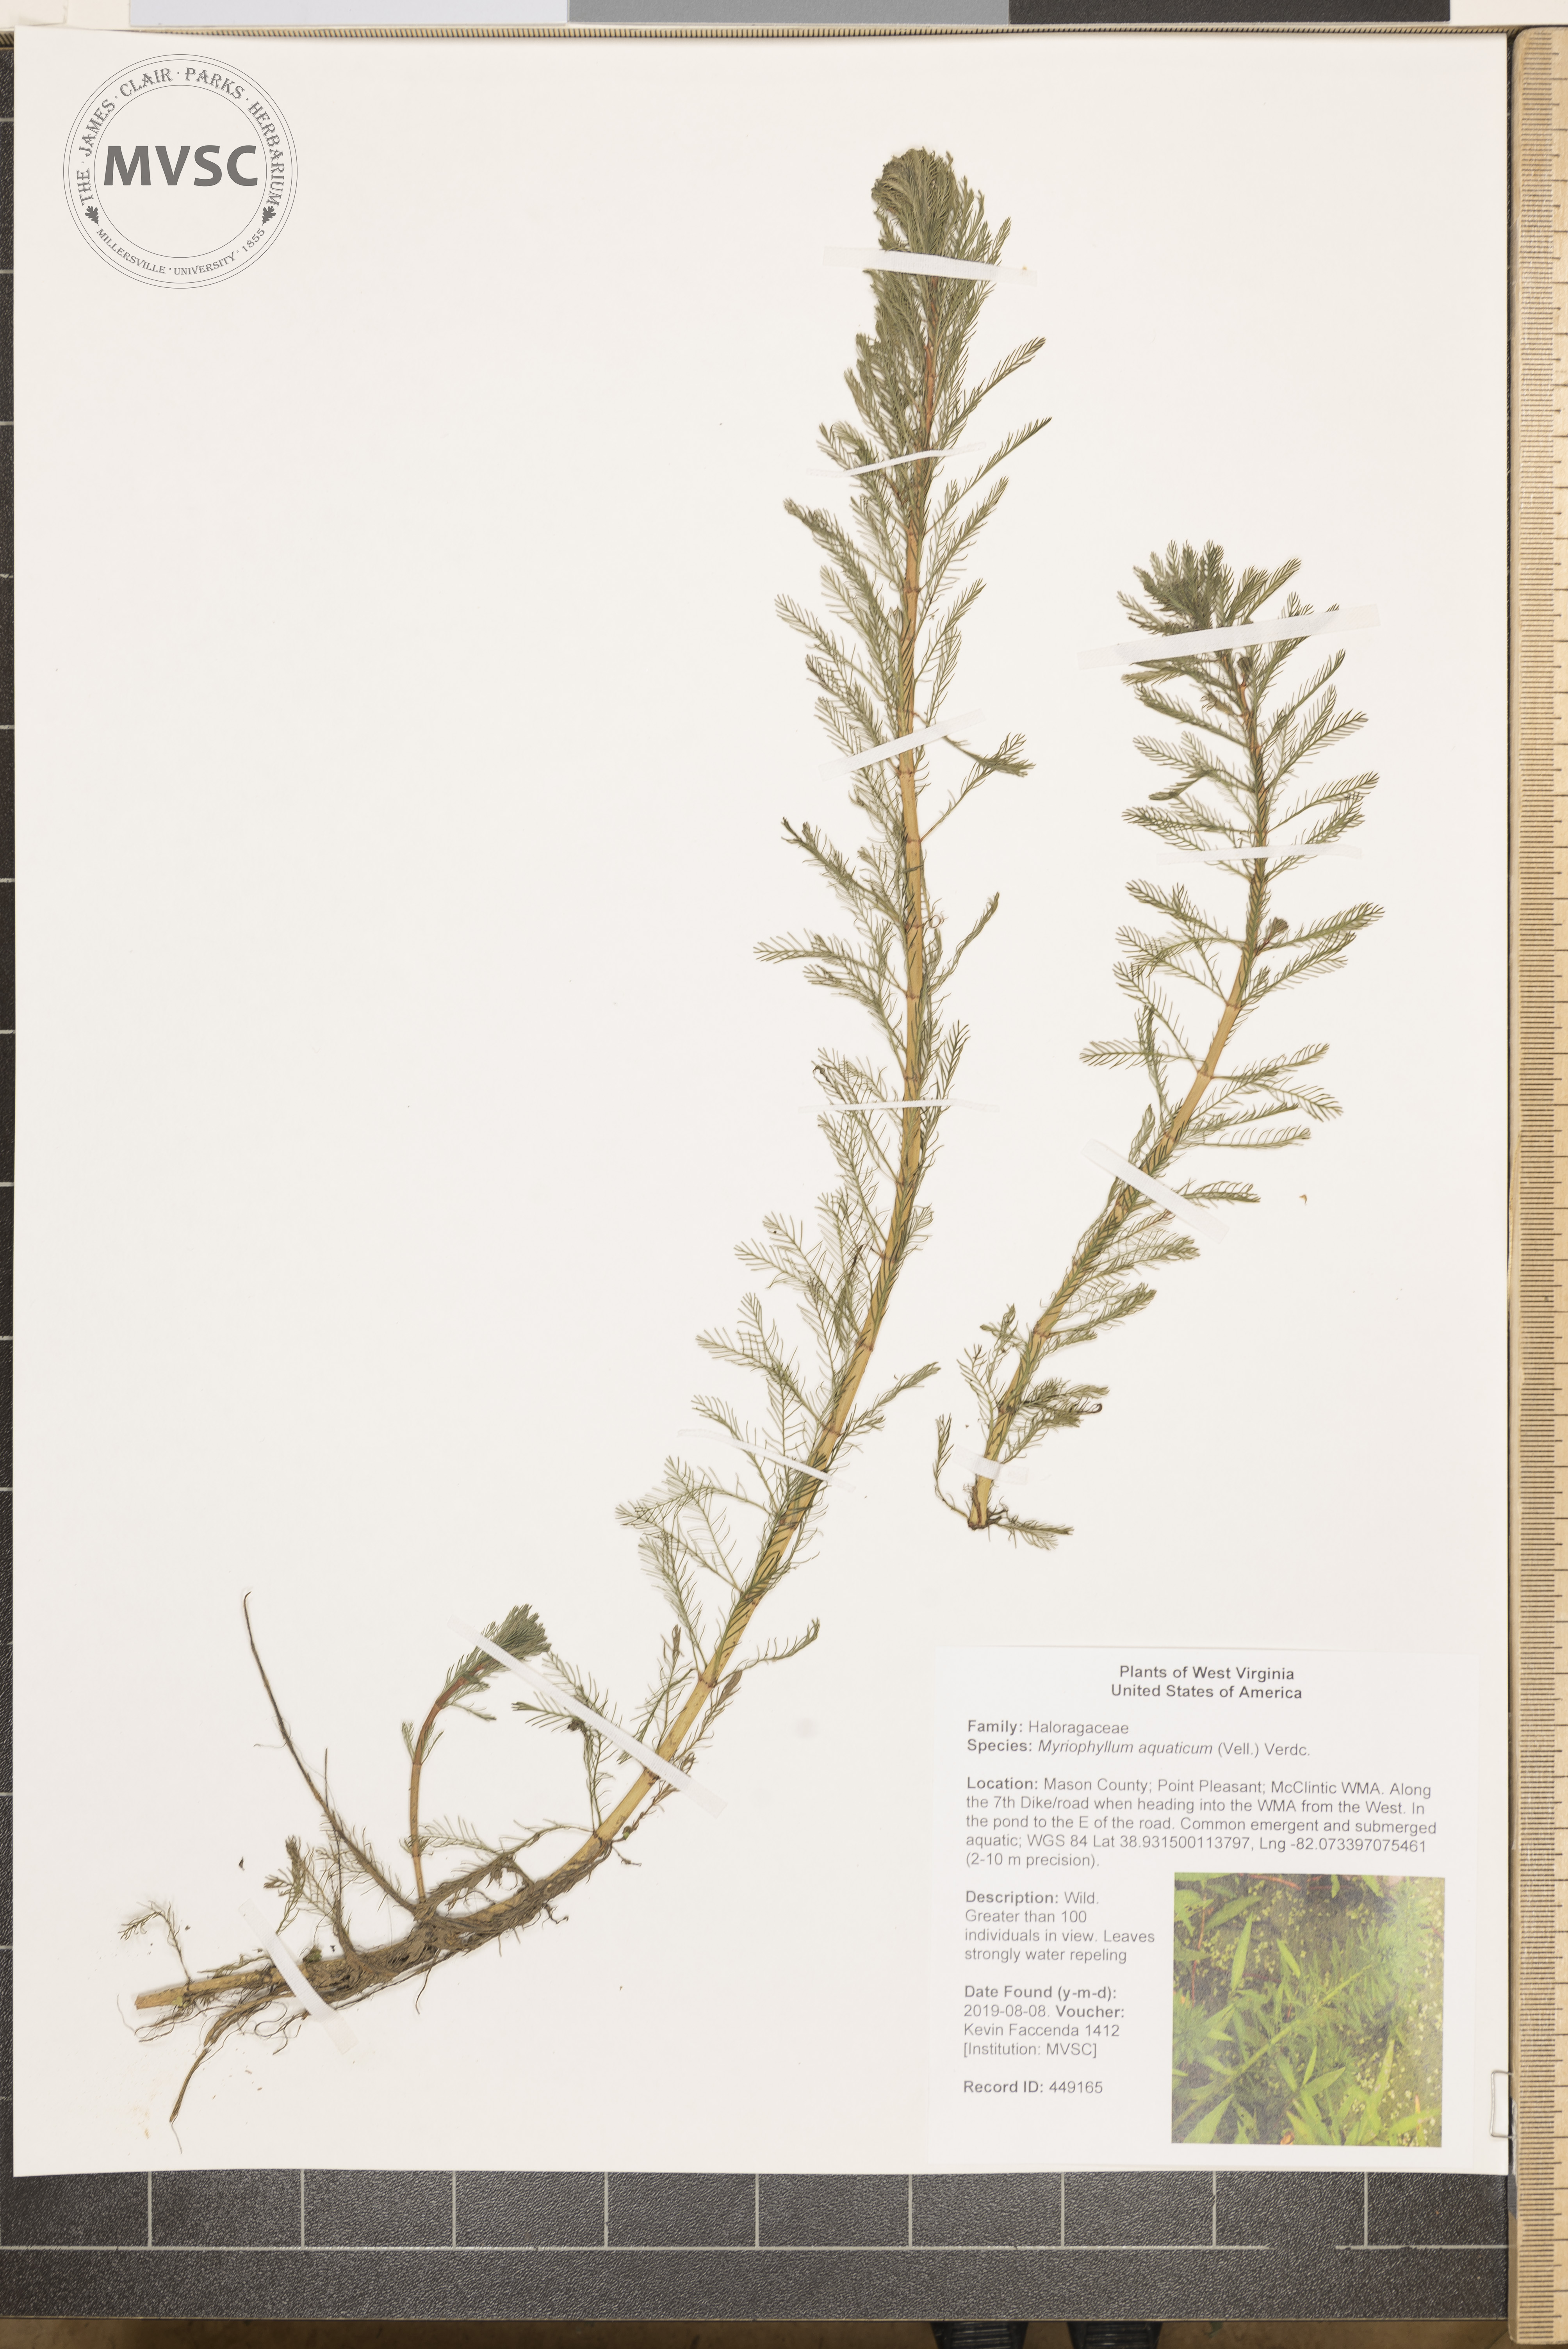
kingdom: Plantae
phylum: Tracheophyta
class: Magnoliopsida
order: Saxifragales
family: Haloragaceae
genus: Myriophyllum
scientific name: Myriophyllum aquaticum
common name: Parrot's feather
